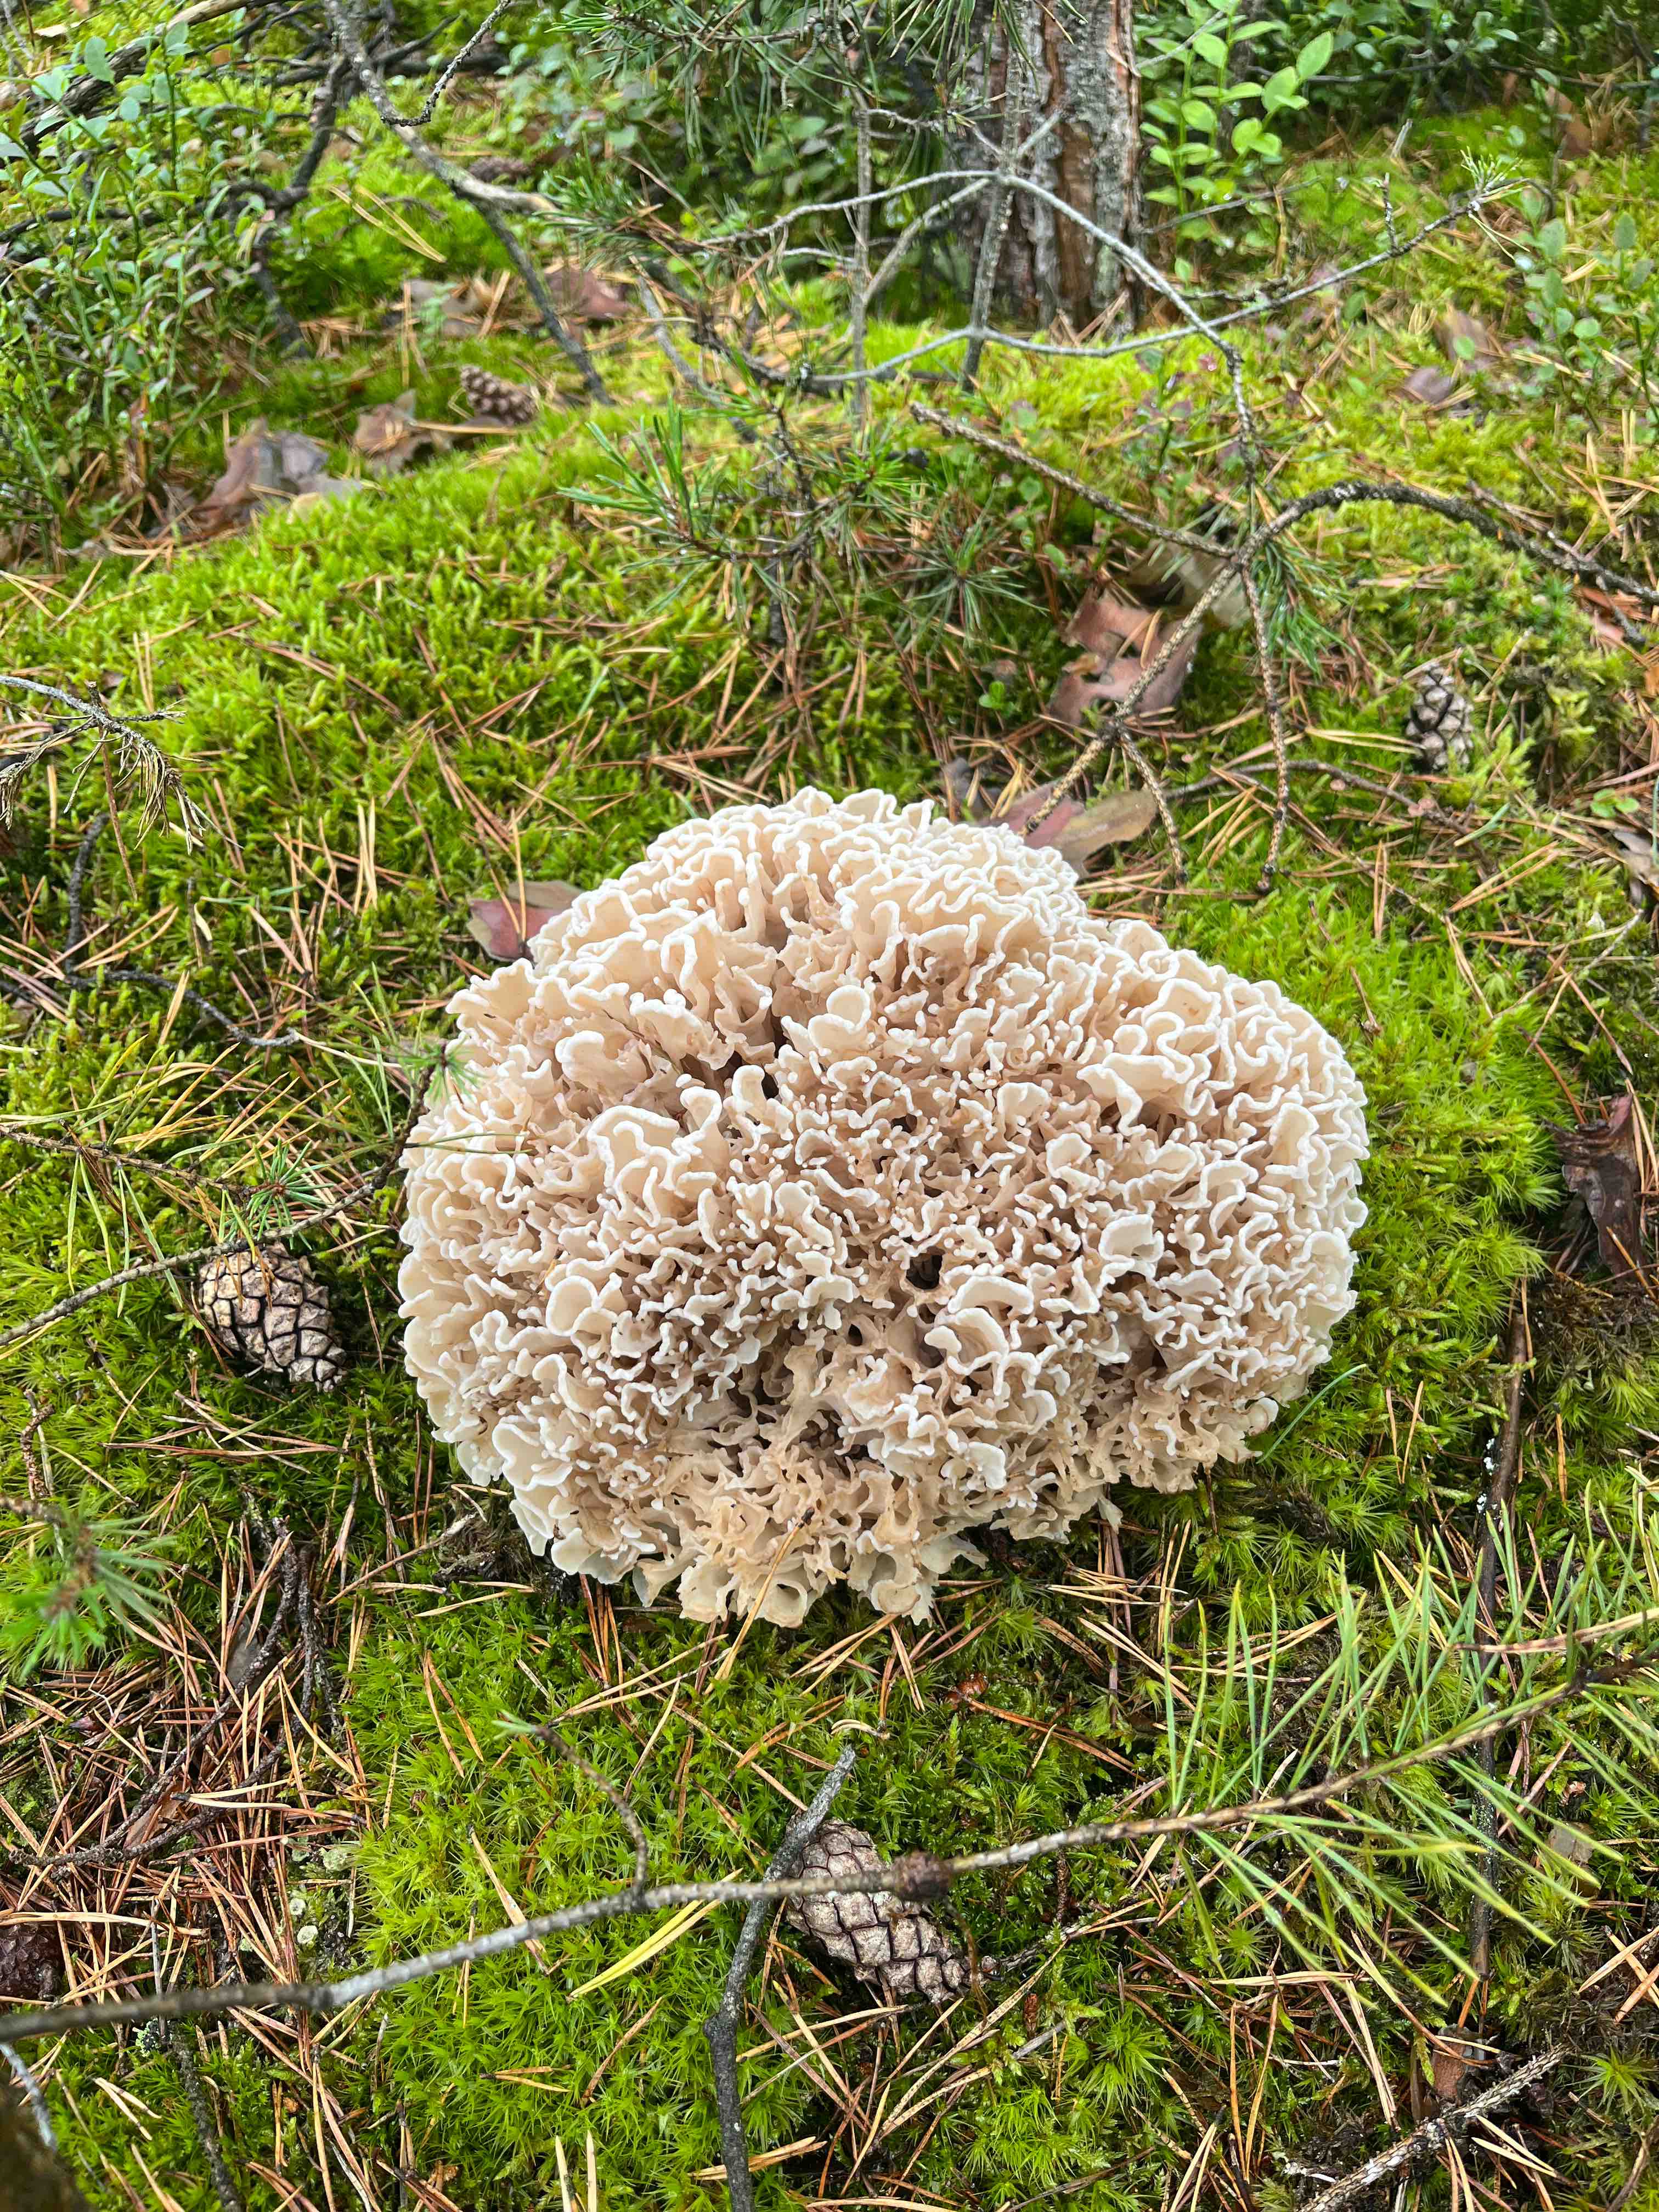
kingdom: Fungi
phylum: Basidiomycota
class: Agaricomycetes
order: Polyporales
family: Sparassidaceae
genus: Sparassis
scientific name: Sparassis
